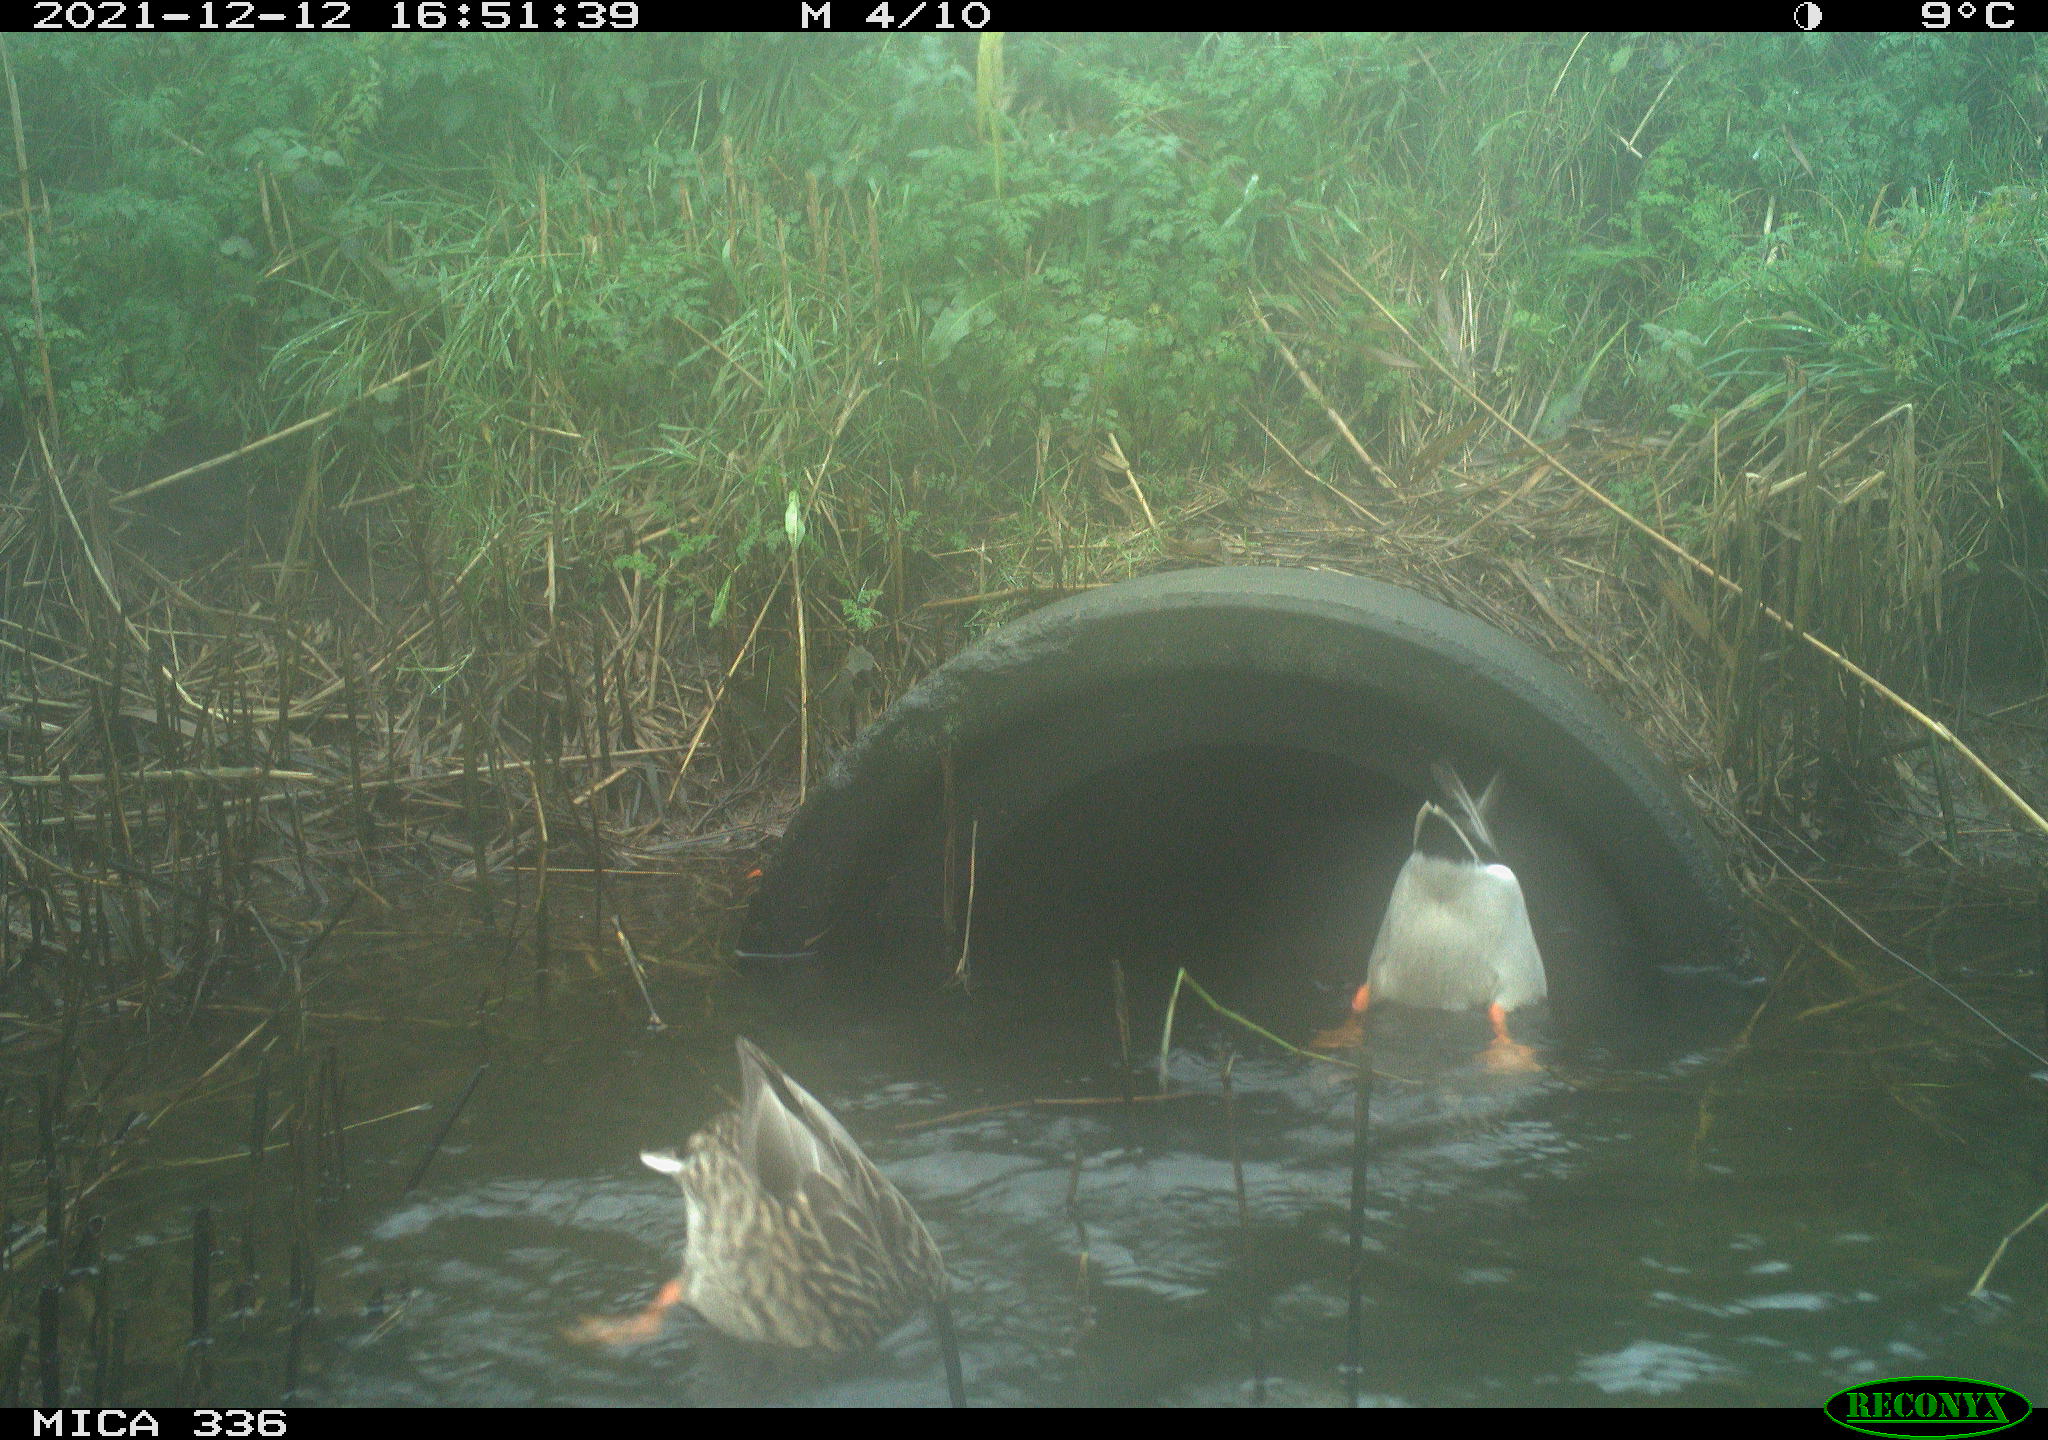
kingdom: Animalia
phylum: Chordata
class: Aves
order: Anseriformes
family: Anatidae
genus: Anas
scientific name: Anas platyrhynchos
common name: Mallard
